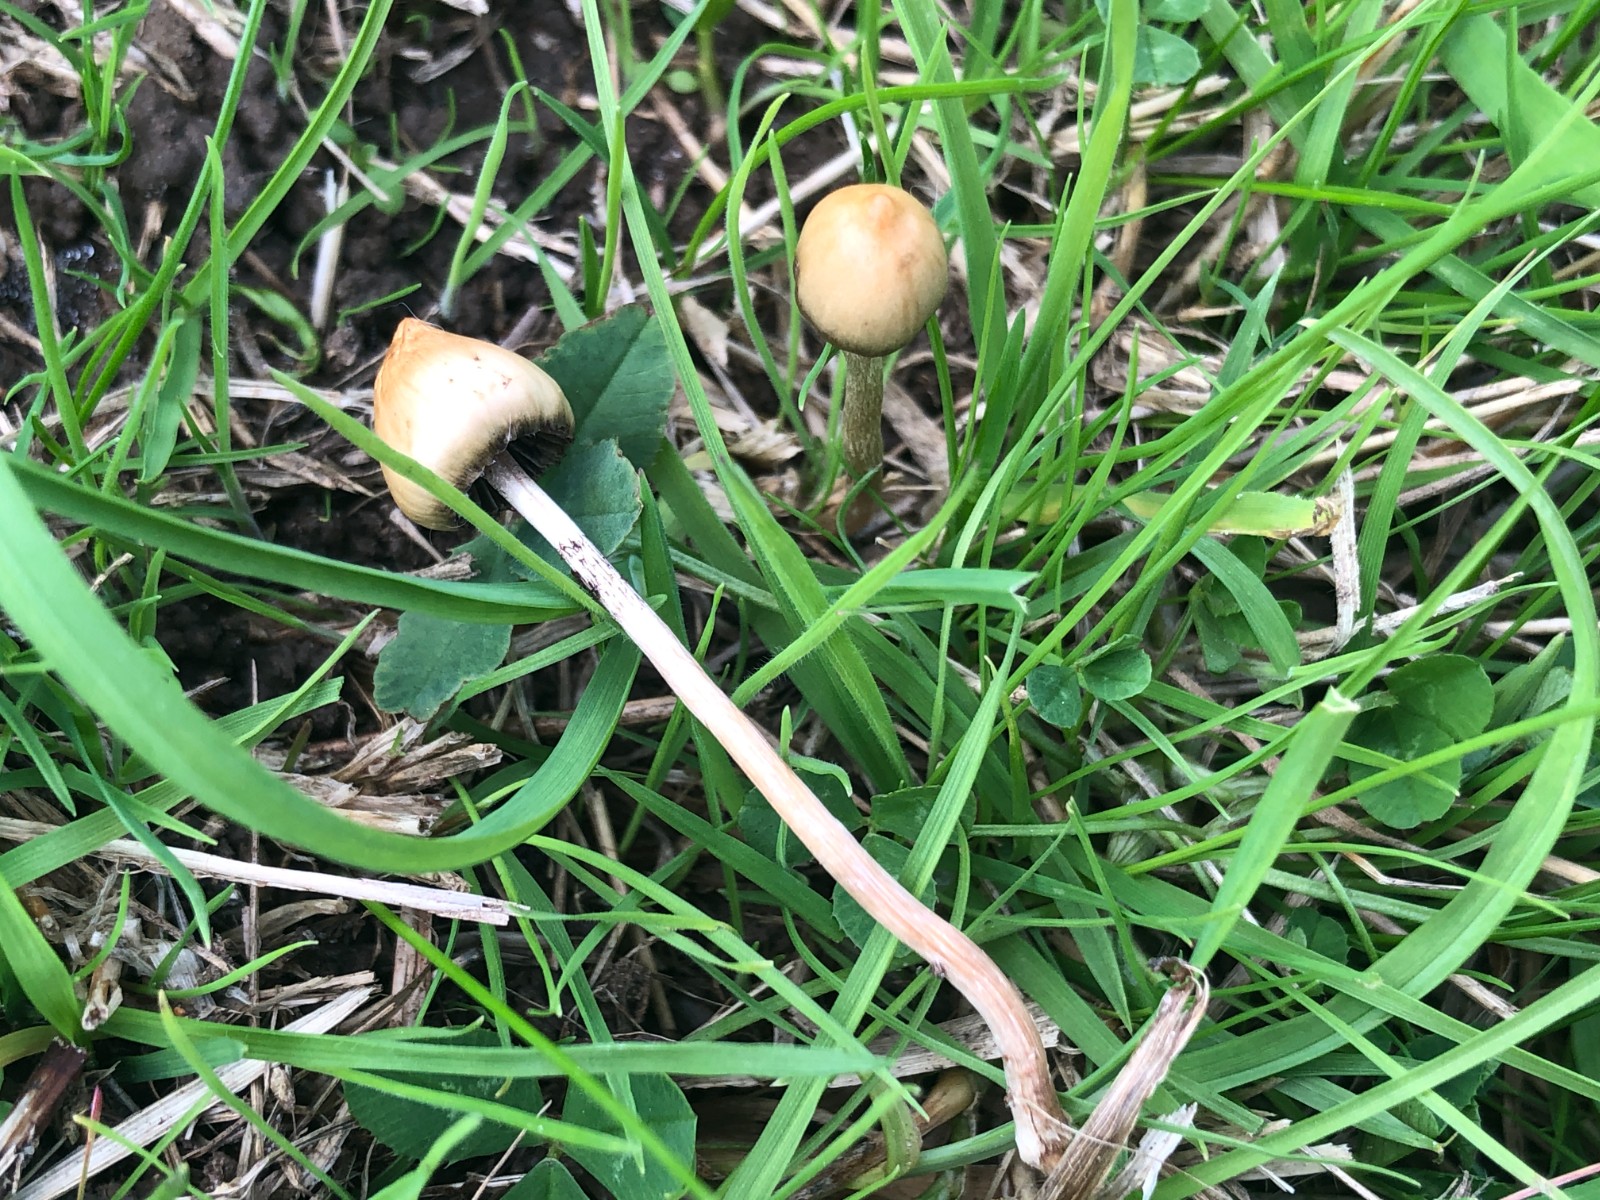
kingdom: Fungi
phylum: Basidiomycota
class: Agaricomycetes
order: Agaricales
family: Hymenogastraceae
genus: Psilocybe
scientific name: Psilocybe semilanceata
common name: spids nøgenhat
